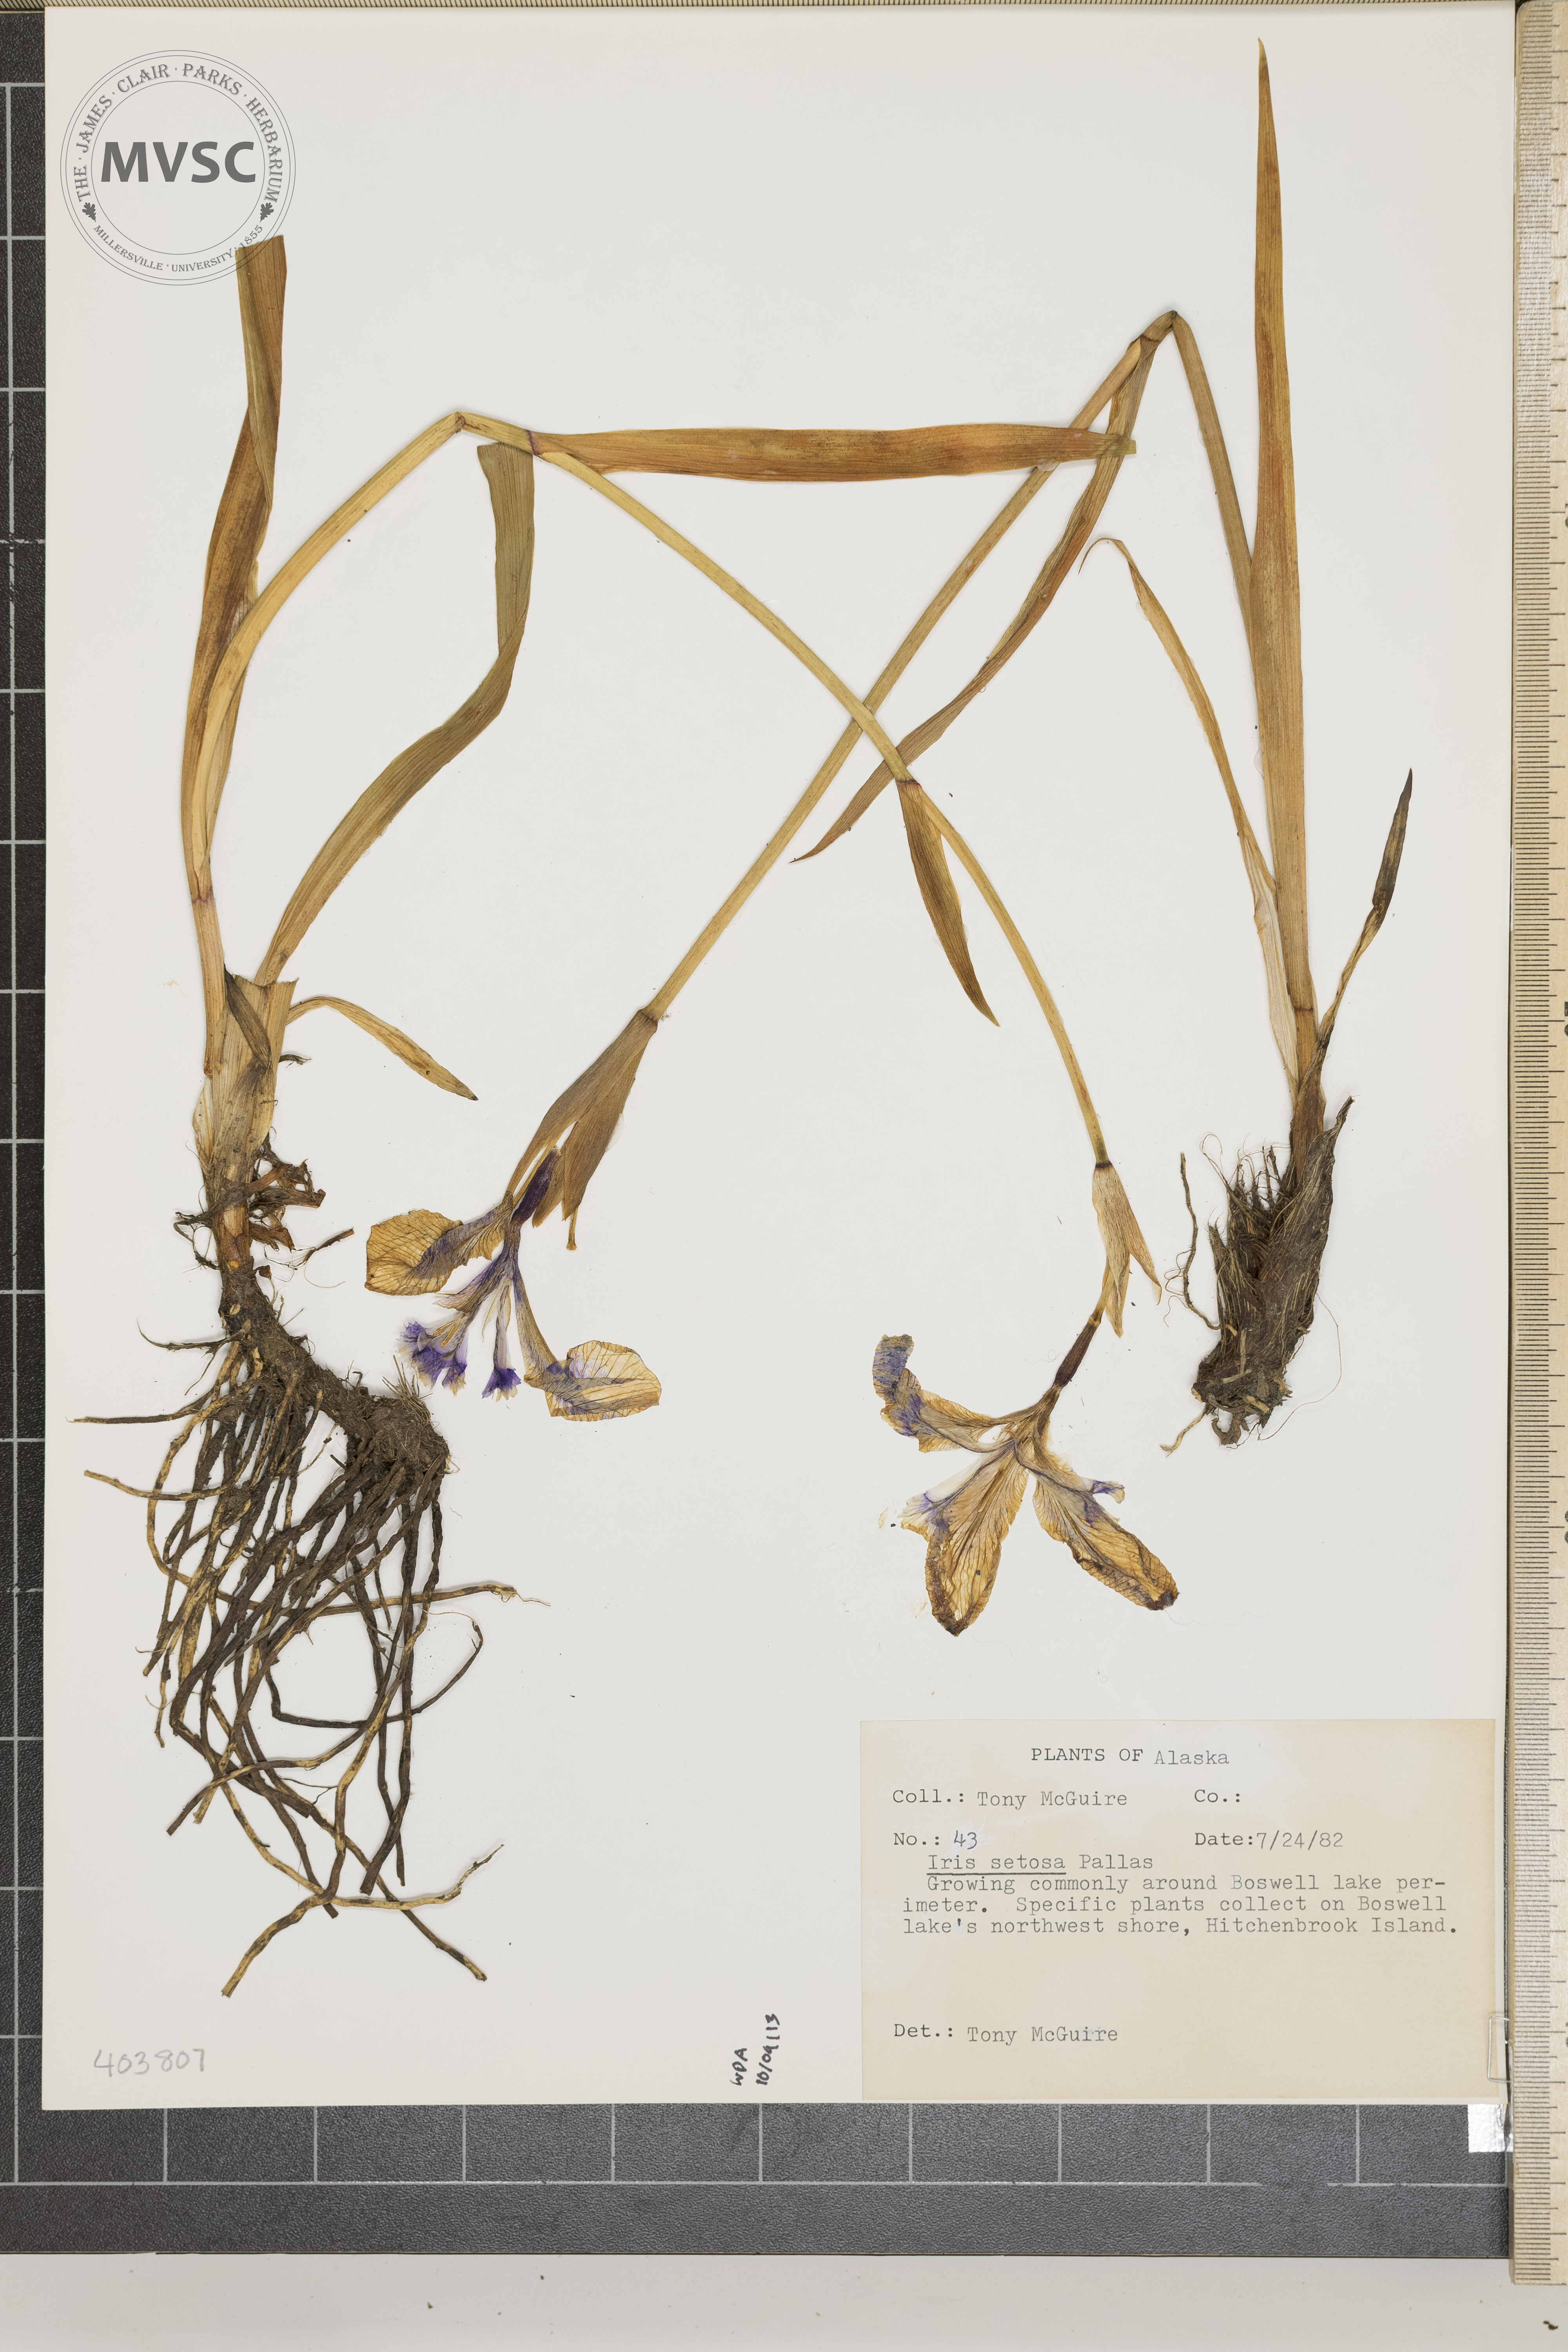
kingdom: Plantae
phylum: Tracheophyta
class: Liliopsida
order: Asparagales
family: Iridaceae
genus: Iris
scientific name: Iris setosa
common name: Arctic blue flag
